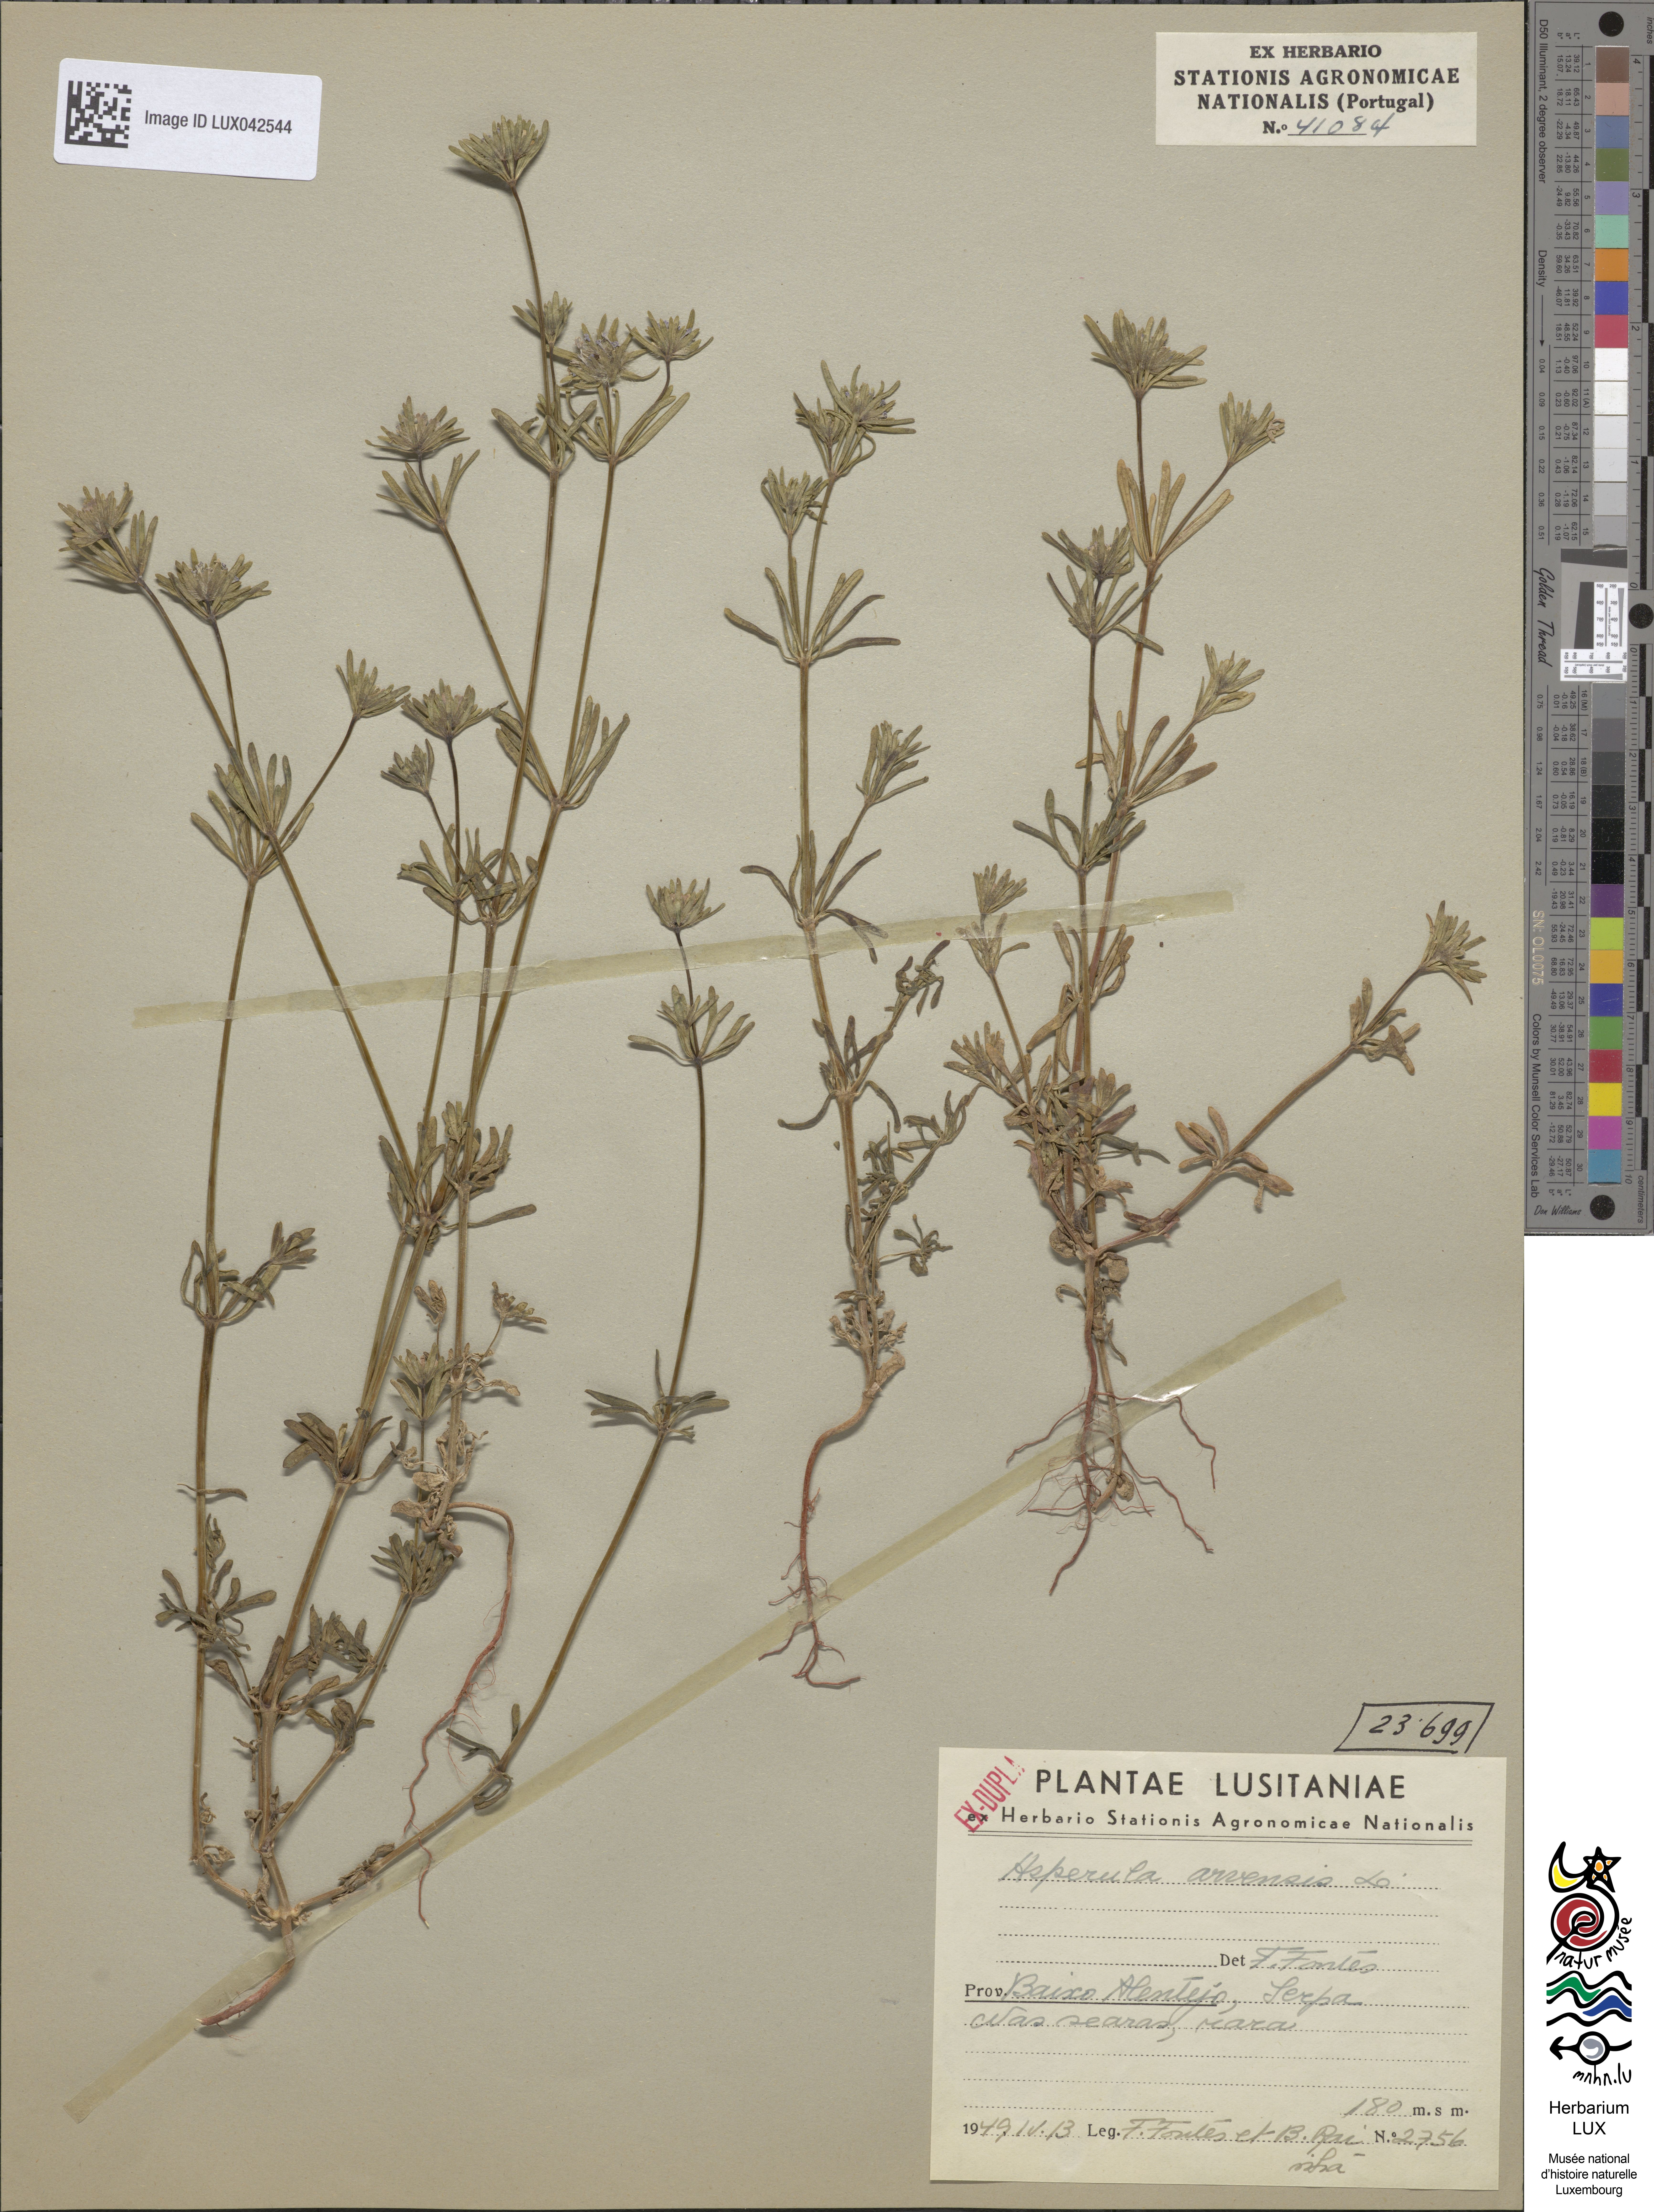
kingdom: Plantae
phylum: Tracheophyta
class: Magnoliopsida
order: Gentianales
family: Rubiaceae
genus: Asperula
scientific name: Asperula arvensis
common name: Blue woodruff
